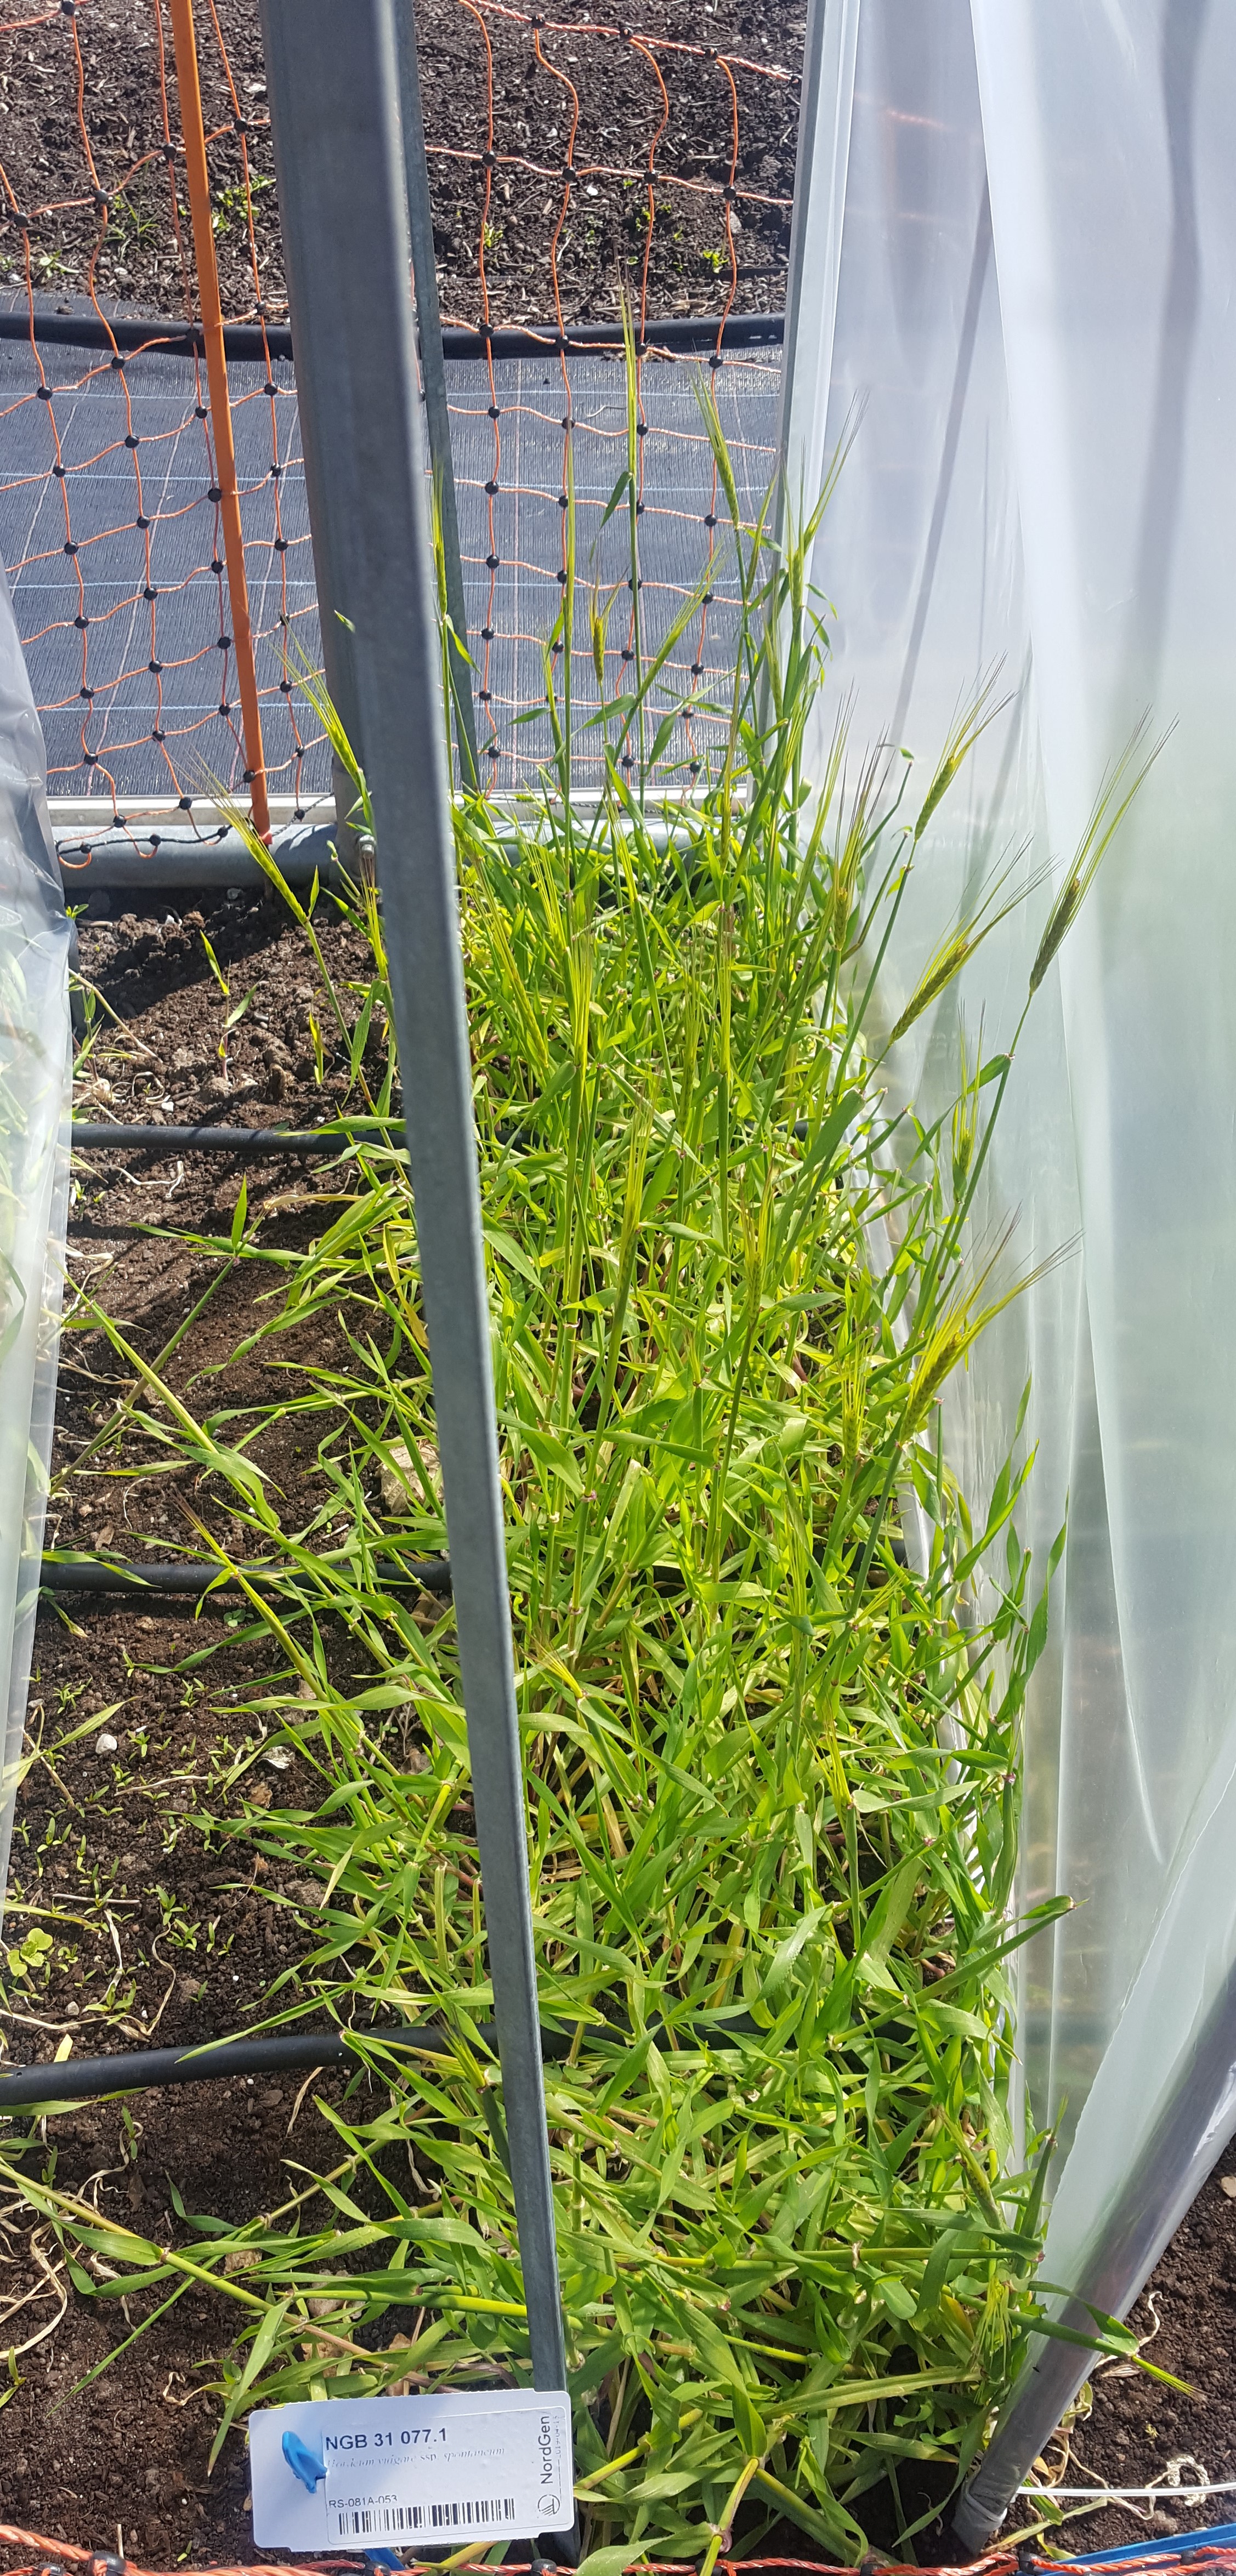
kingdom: Plantae
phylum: Tracheophyta
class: Liliopsida
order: Poales
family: Poaceae
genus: Hordeum
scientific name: Hordeum spontaneum
